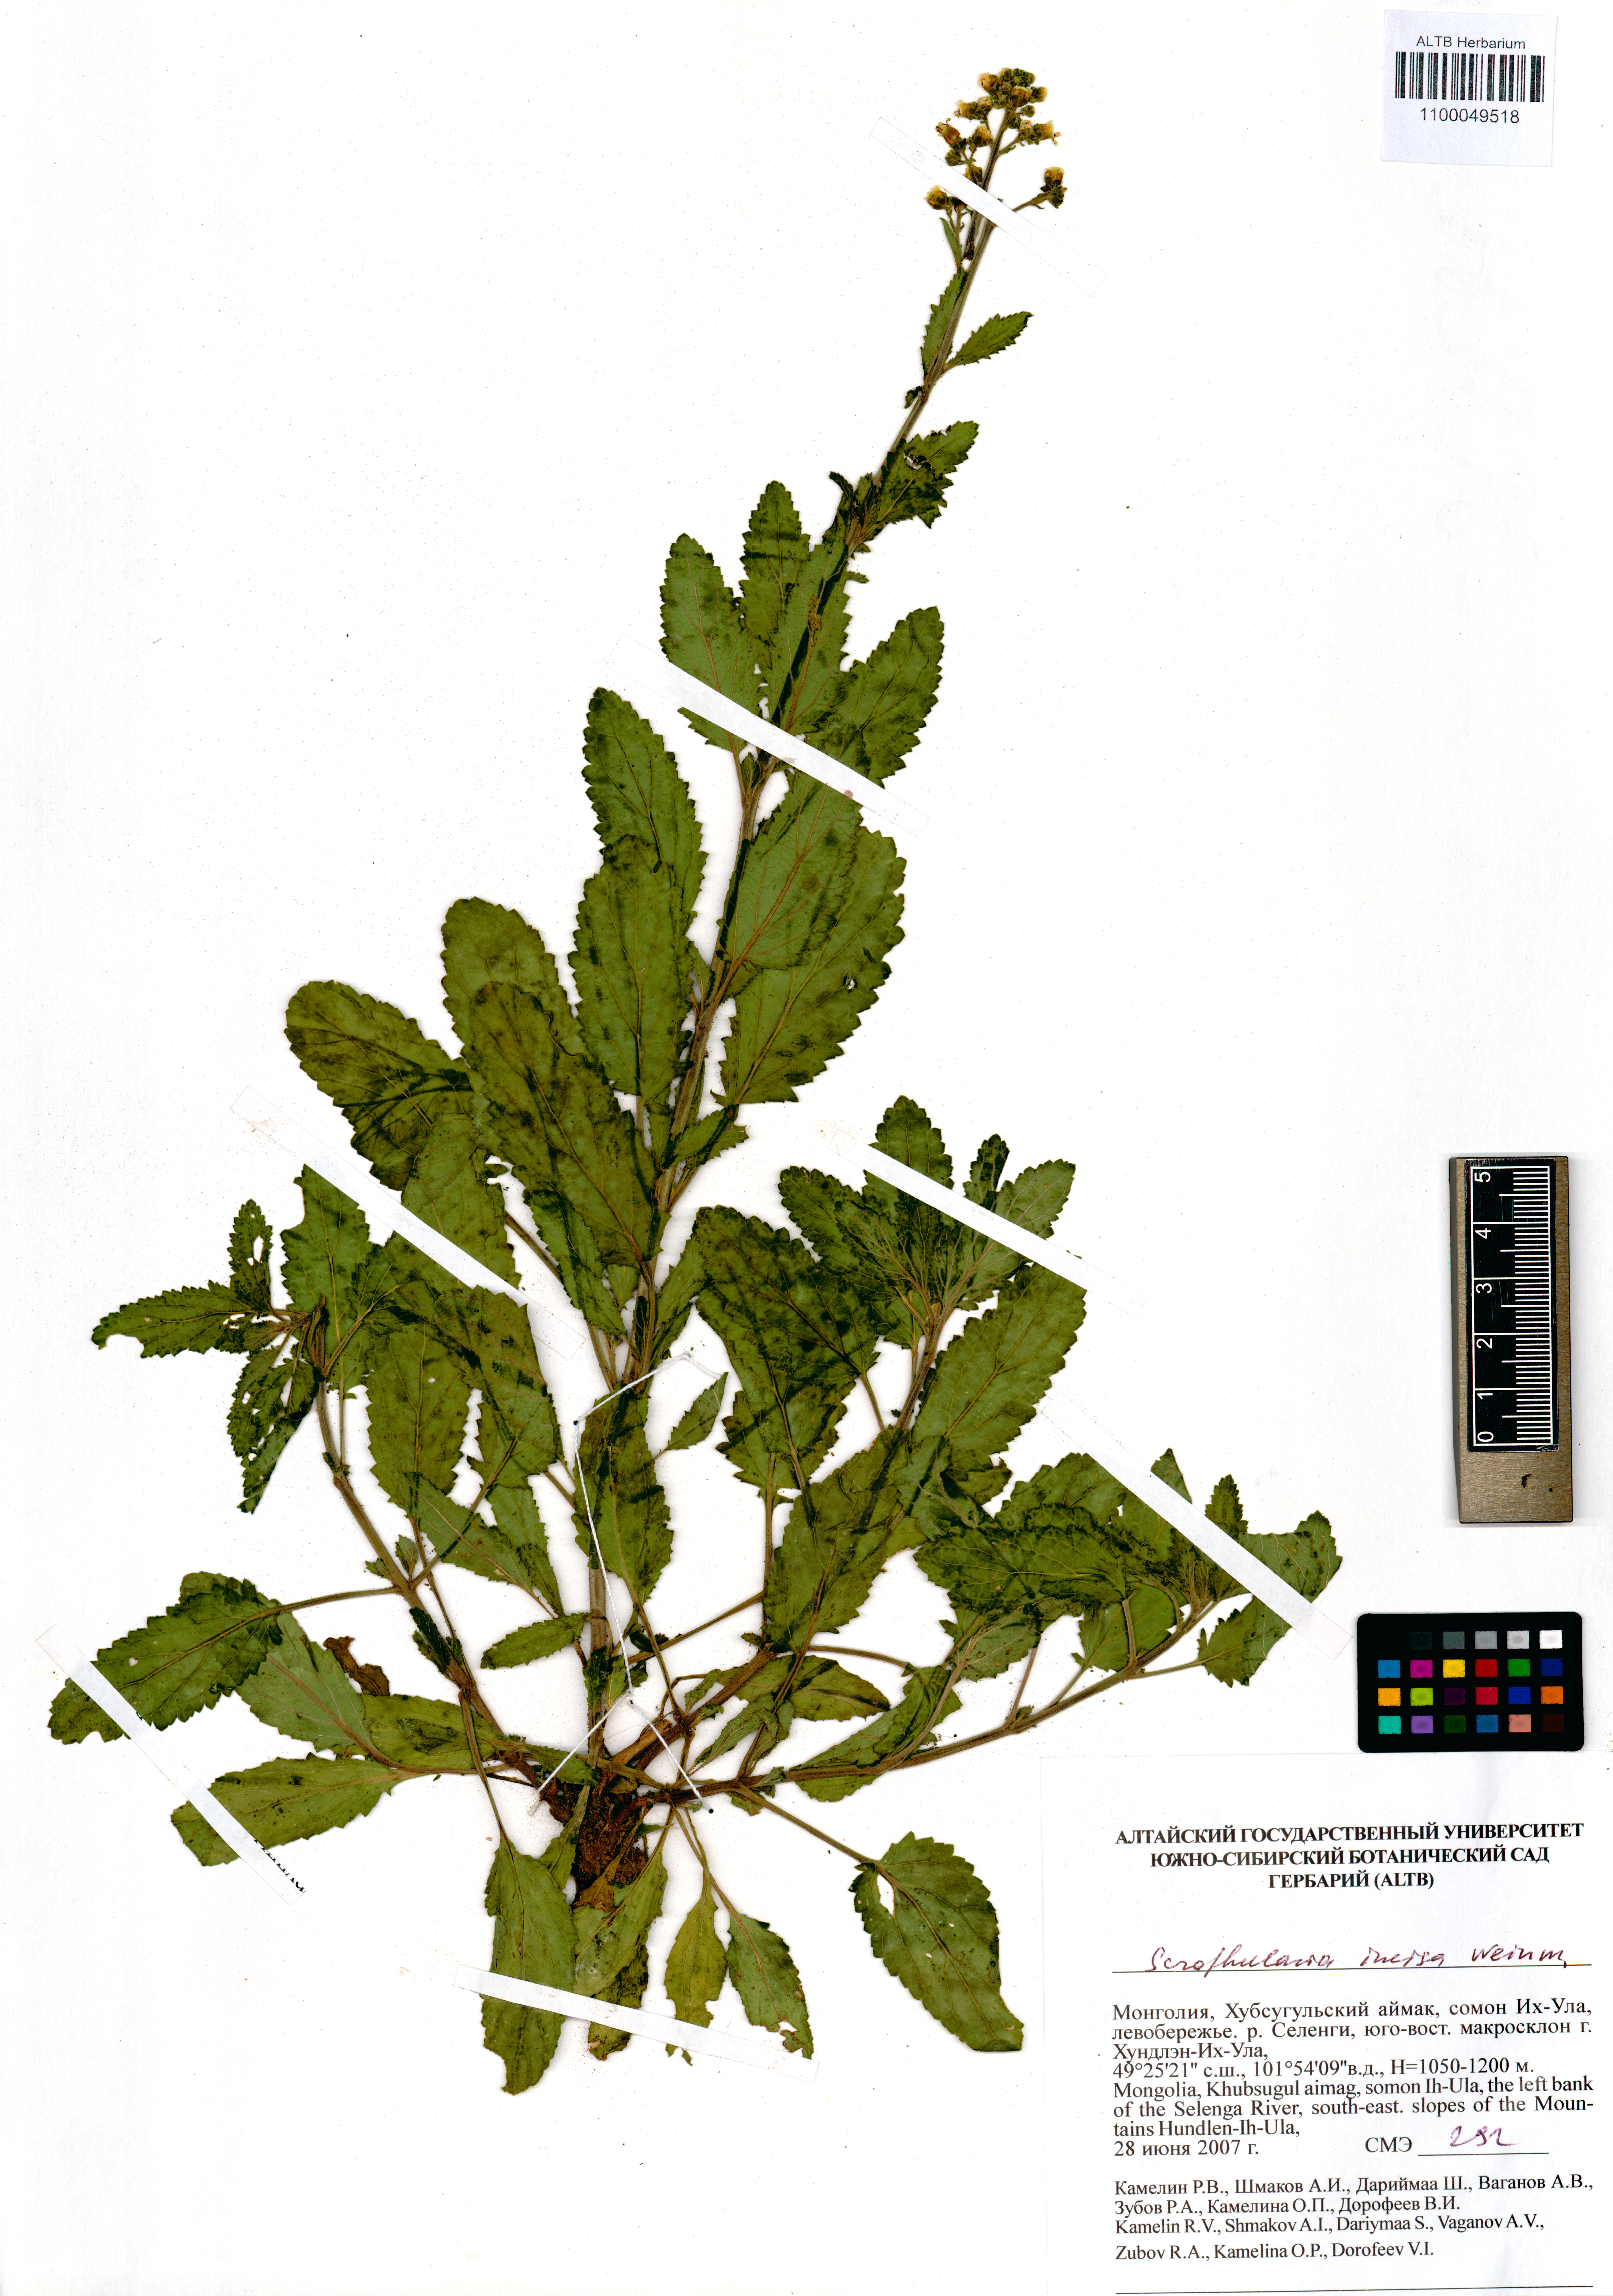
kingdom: Plantae
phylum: Tracheophyta
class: Magnoliopsida
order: Lamiales
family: Scrophulariaceae
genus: Scrophularia
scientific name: Scrophularia incisa
